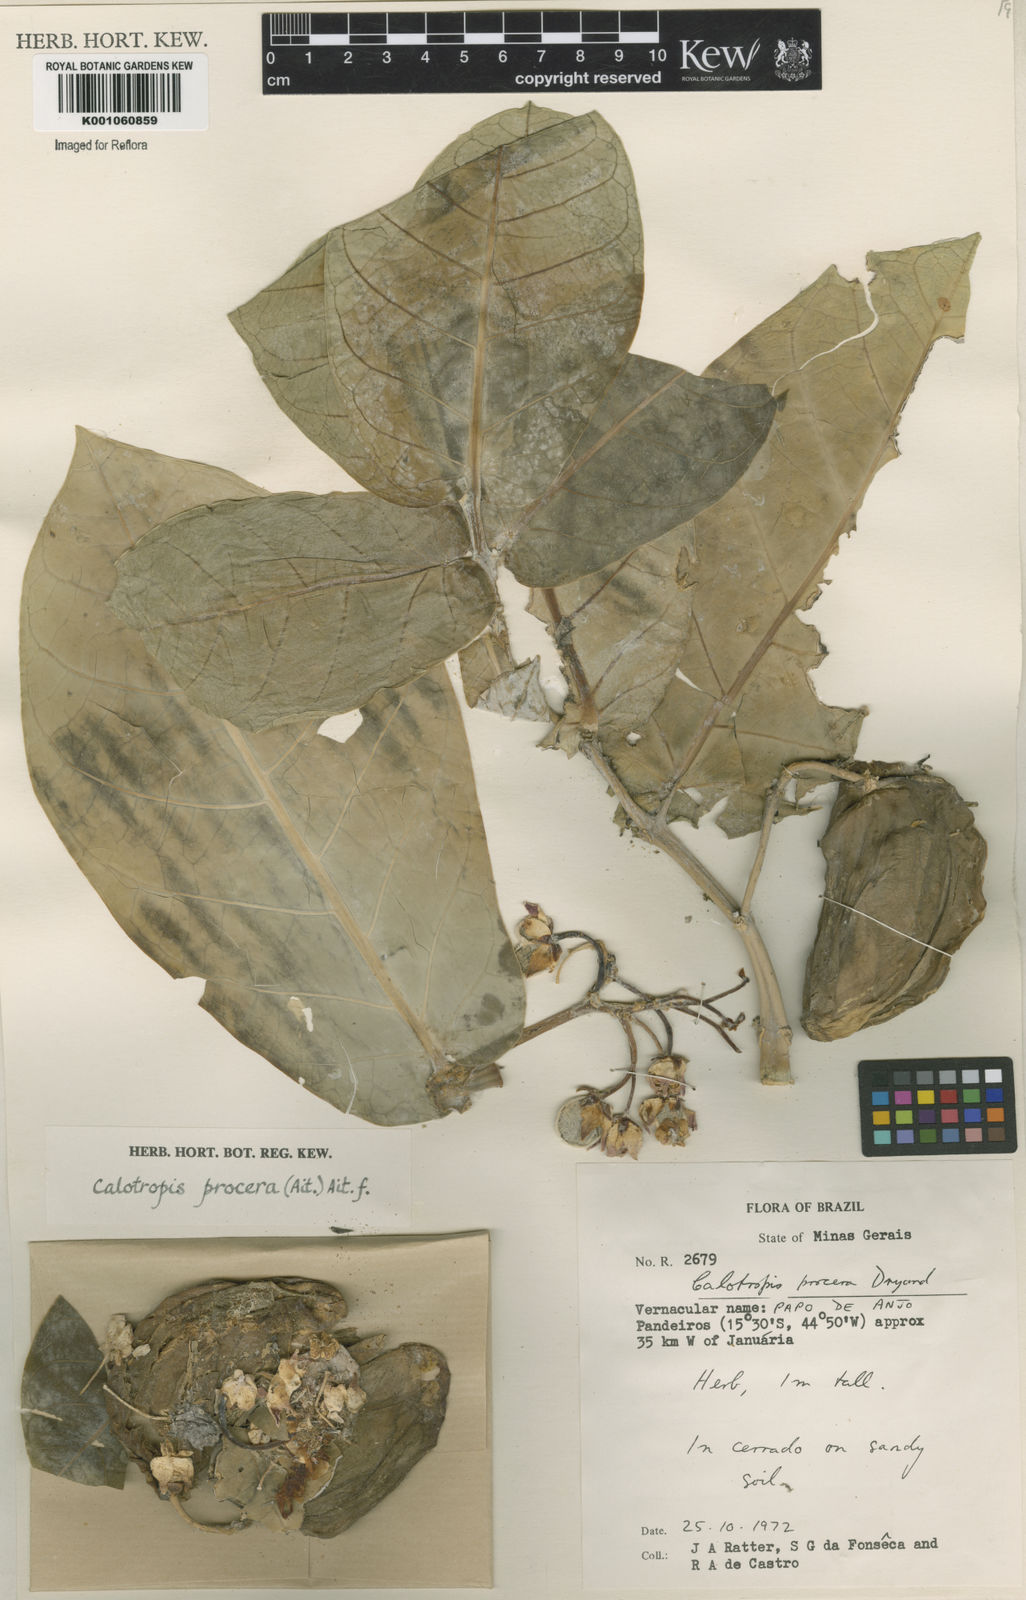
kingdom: Plantae
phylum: Tracheophyta
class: Magnoliopsida
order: Gentianales
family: Apocynaceae
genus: Calotropis
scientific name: Calotropis procera
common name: Roostertree
